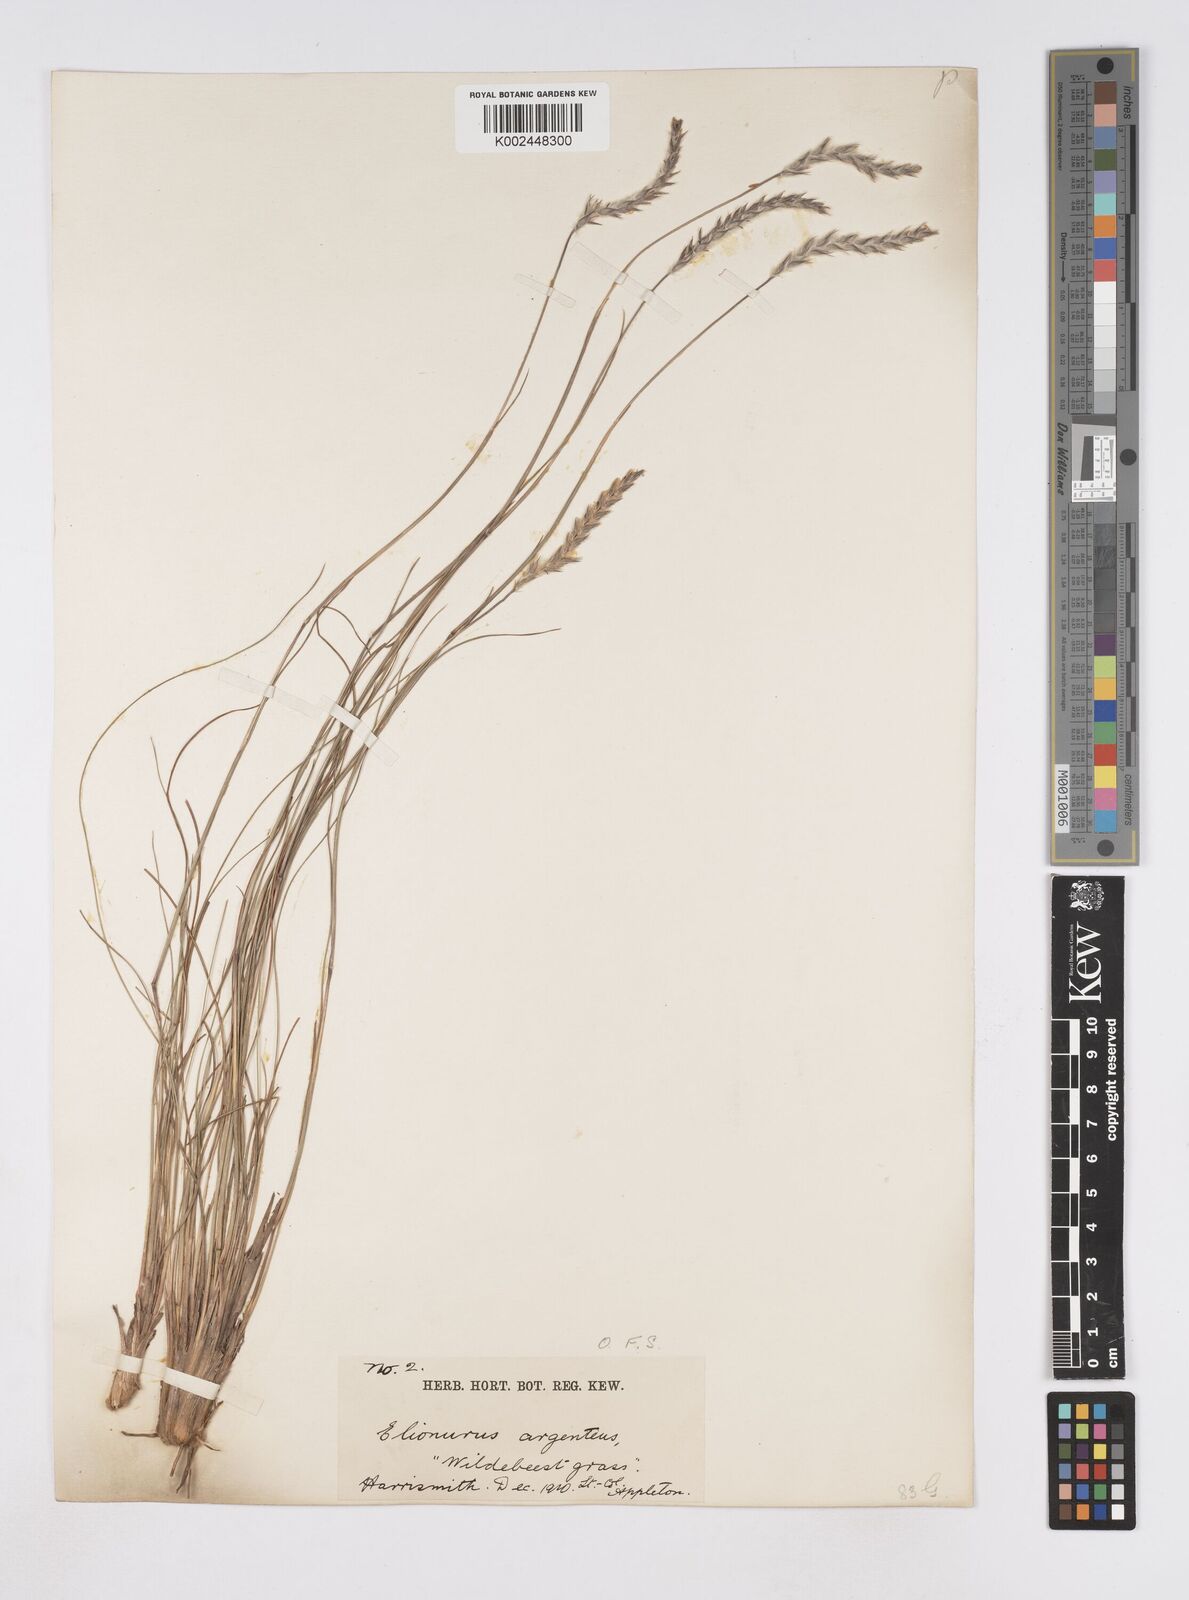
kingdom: Plantae
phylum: Tracheophyta
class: Liliopsida
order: Poales
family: Poaceae
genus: Elionurus
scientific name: Elionurus muticus
